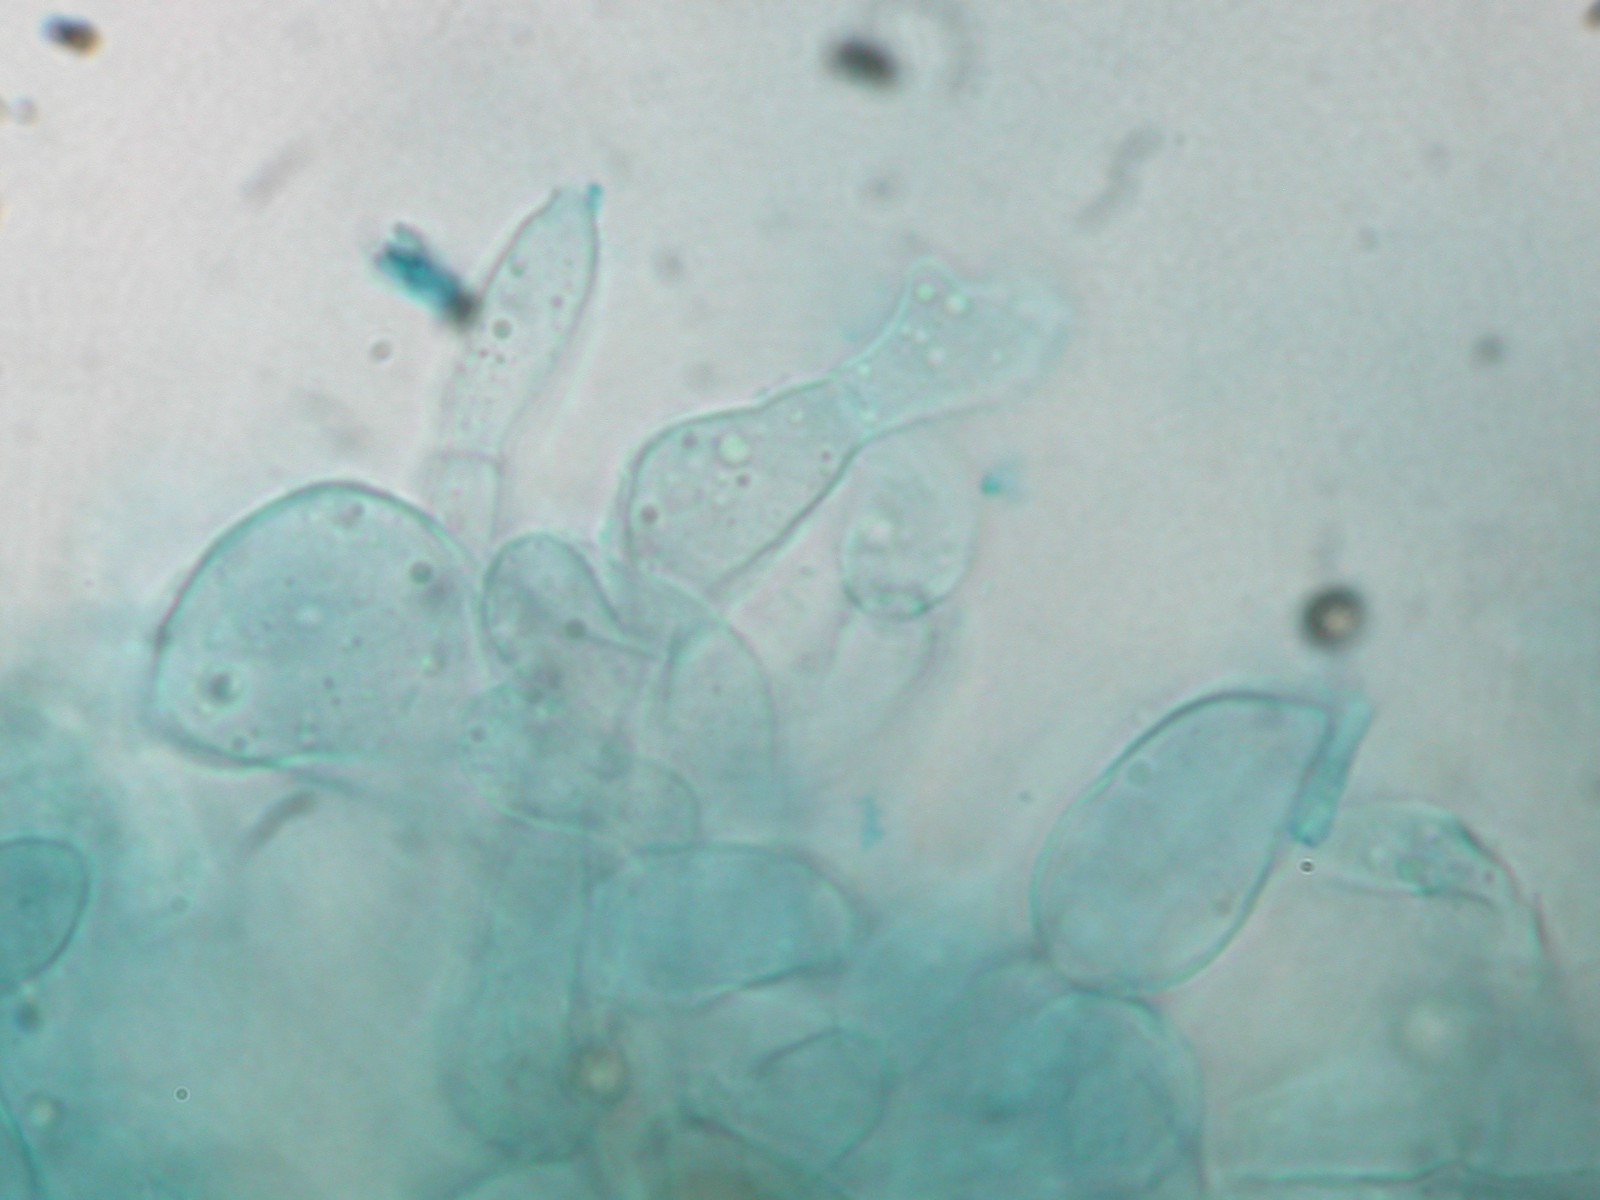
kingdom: Fungi
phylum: Ascomycota
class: Pezizomycetes
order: Pezizales
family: Otideaceae
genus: Otidea
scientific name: Otidea onotica
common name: æsel-ørebæger
